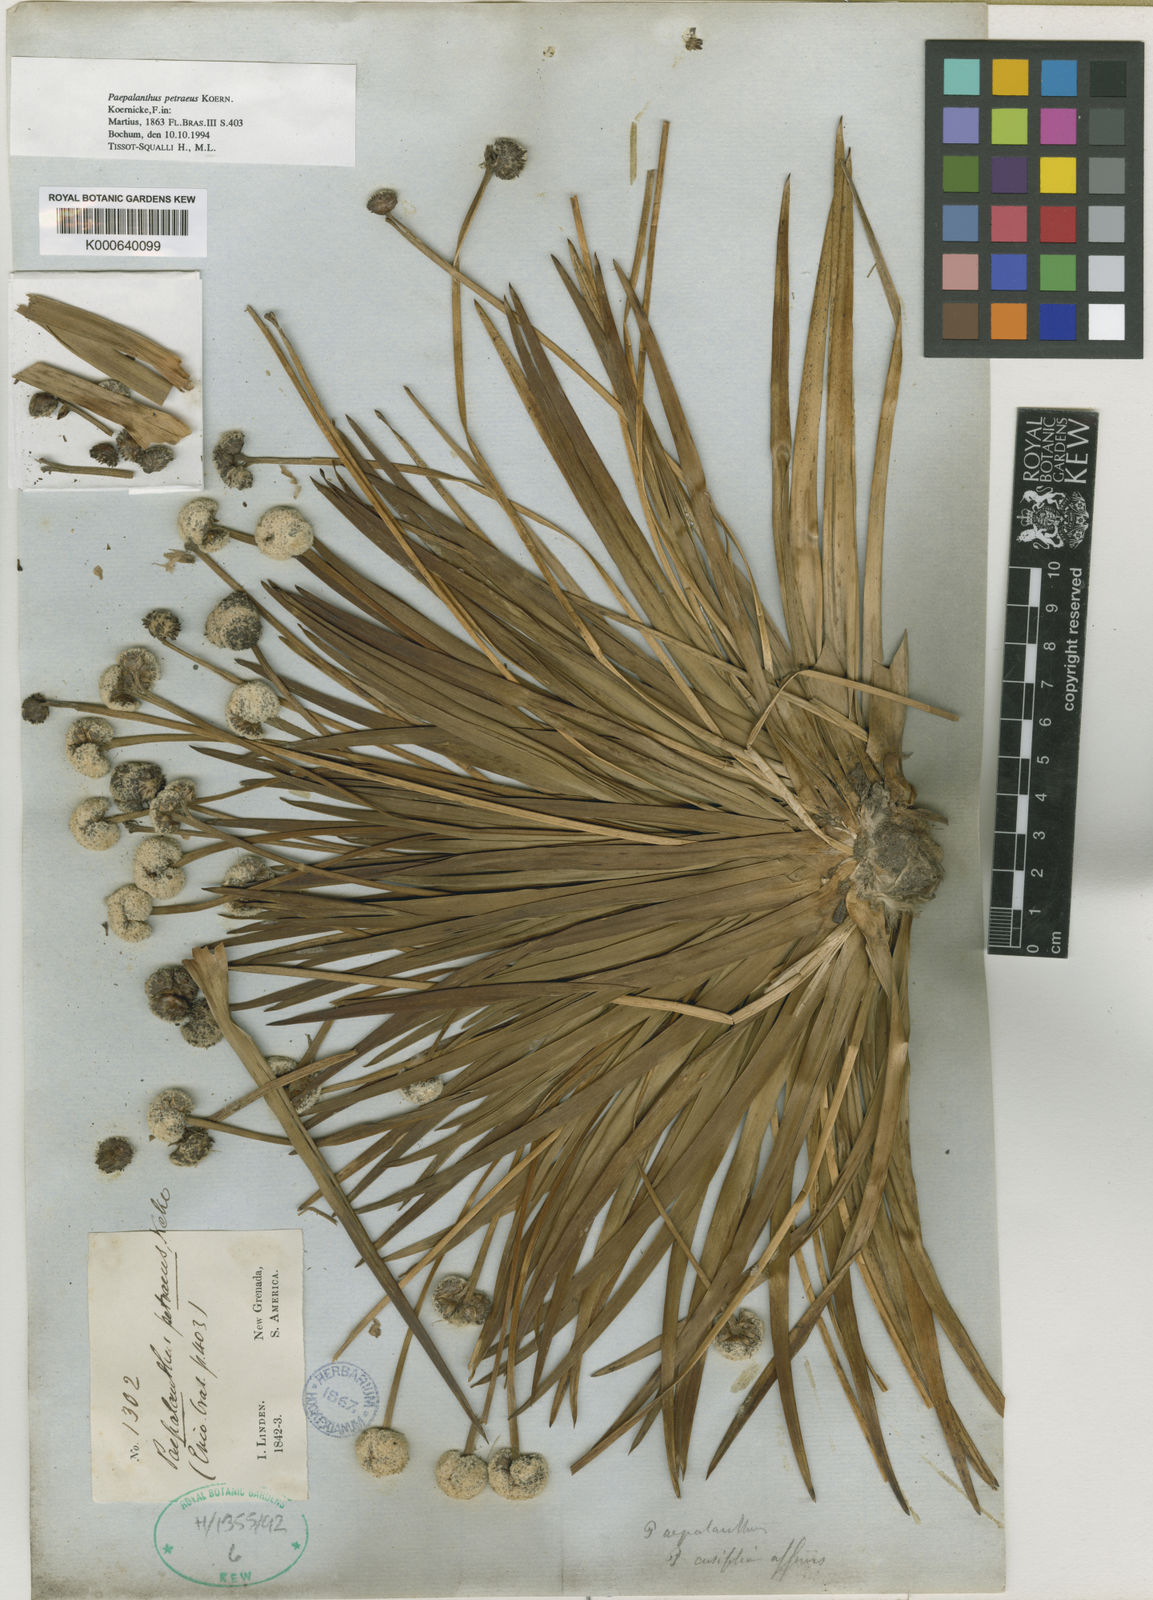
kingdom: Plantae
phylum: Tracheophyta
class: Liliopsida
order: Poales
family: Eriocaulaceae
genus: Paepalanthus
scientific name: Paepalanthus
